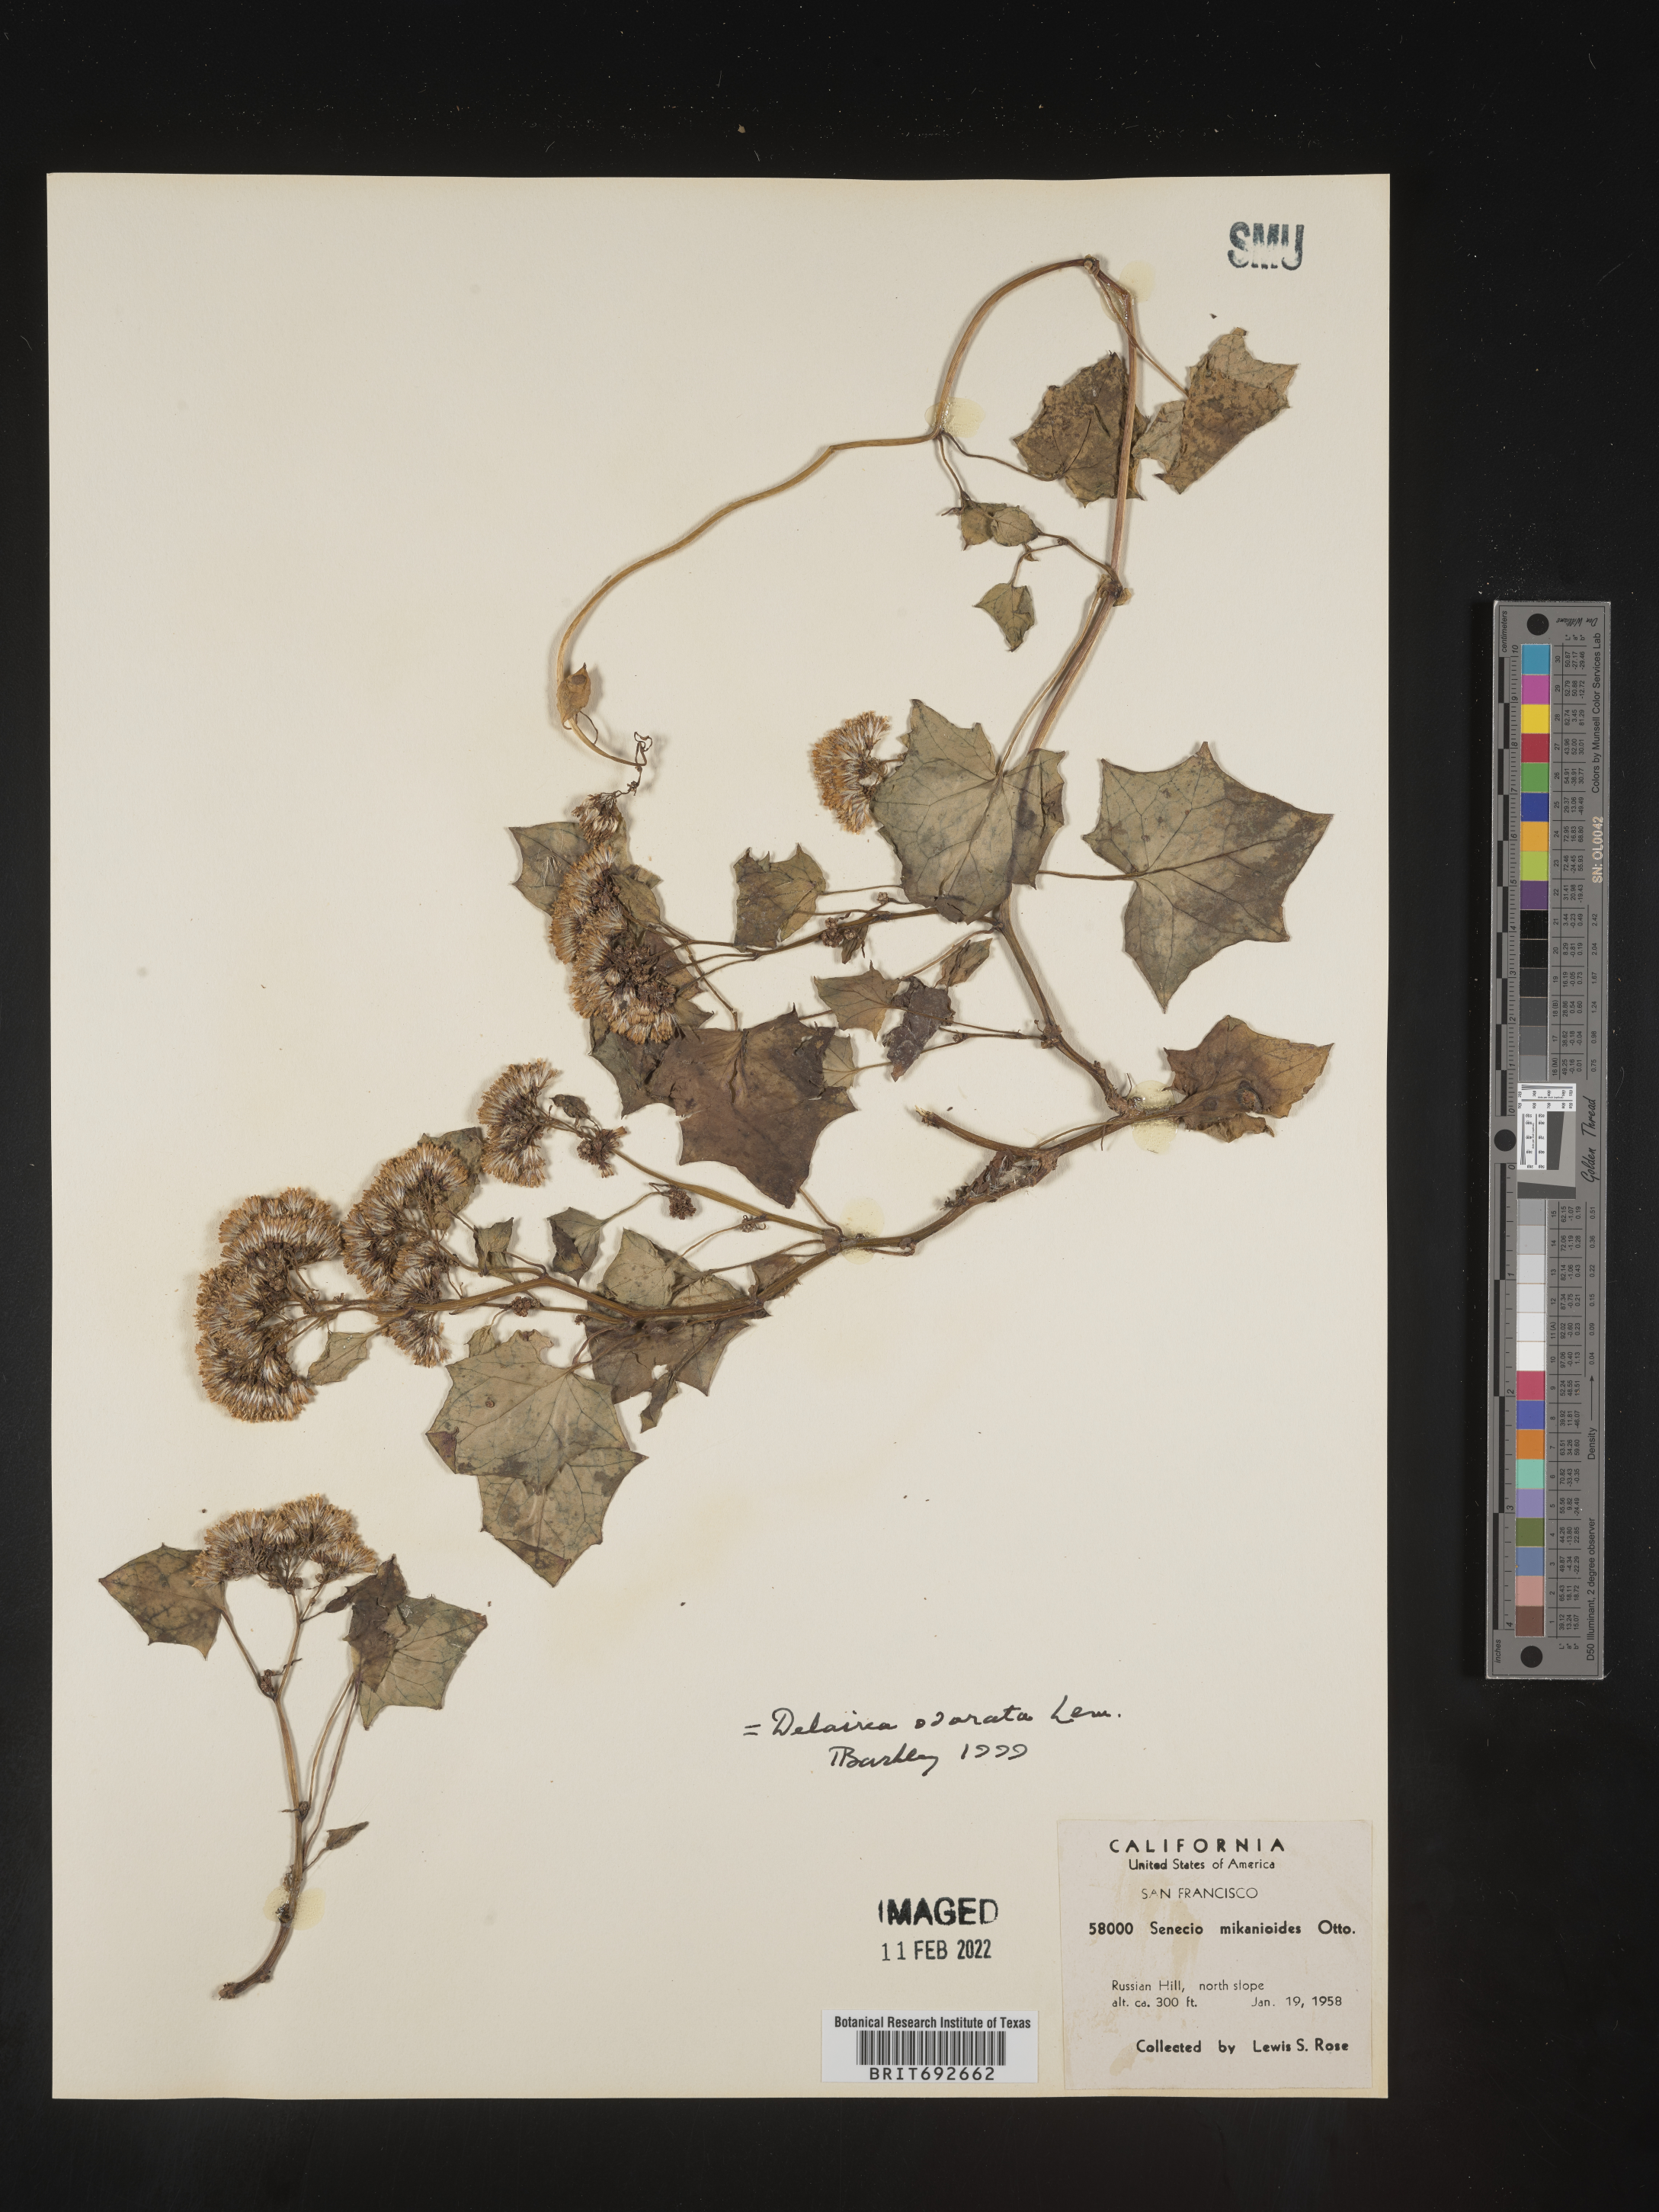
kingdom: Plantae
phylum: Tracheophyta
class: Magnoliopsida
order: Asterales
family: Asteraceae
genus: Delairea
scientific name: Delairea odorata
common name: Cape-ivy
